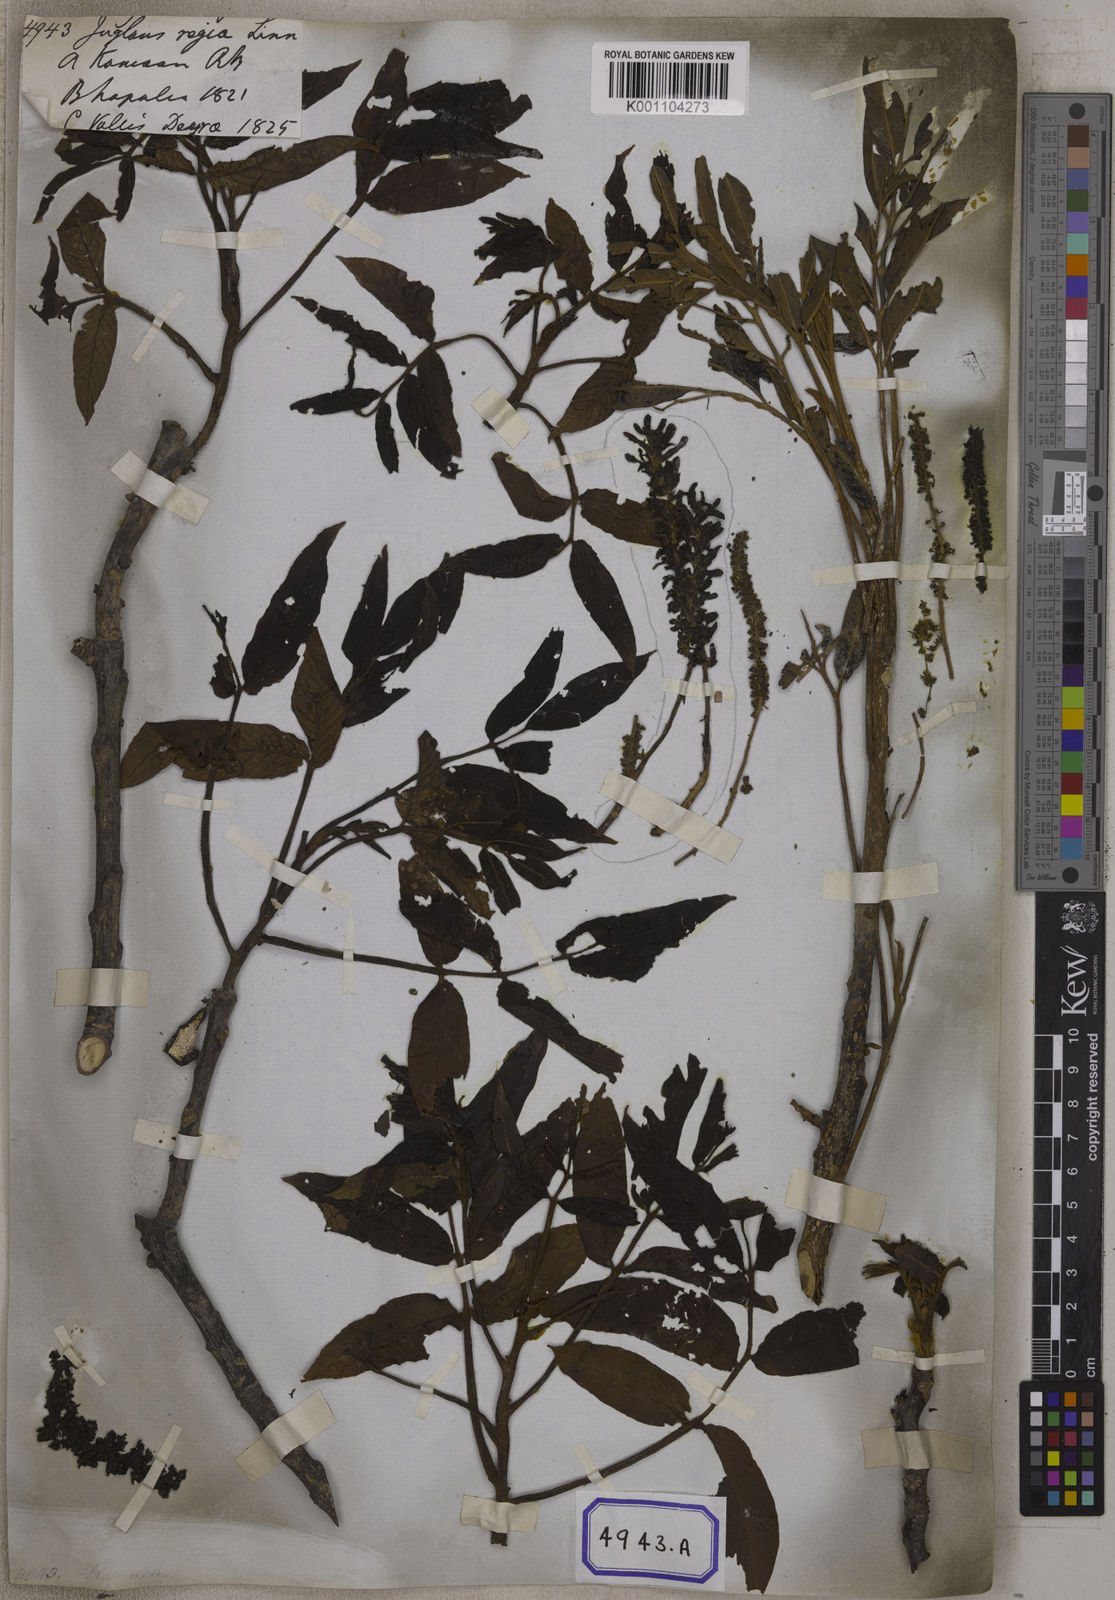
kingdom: Plantae
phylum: Tracheophyta
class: Magnoliopsida
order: Fagales
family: Juglandaceae
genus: Juglans
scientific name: Juglans regia
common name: Walnut
